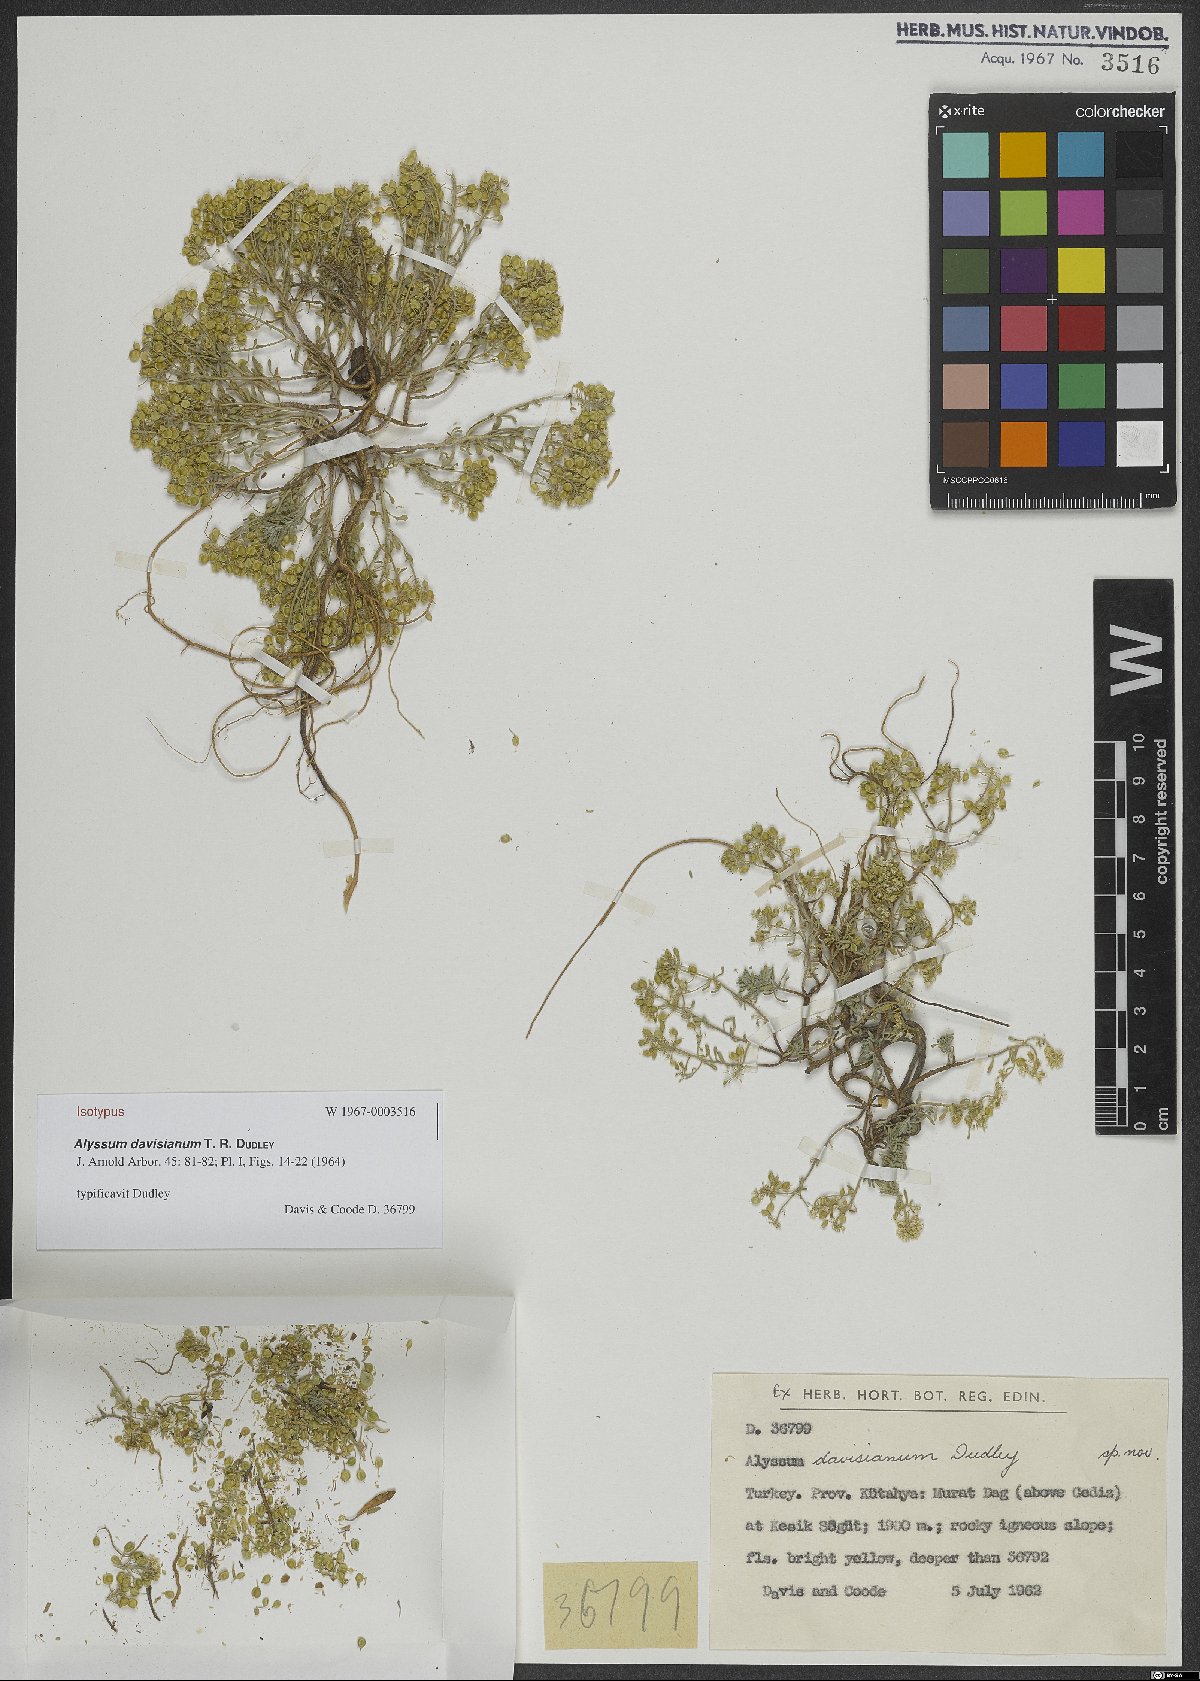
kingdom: Plantae
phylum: Tracheophyta
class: Magnoliopsida
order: Brassicales
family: Brassicaceae
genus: Odontarrhena
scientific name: Odontarrhena davisiana
